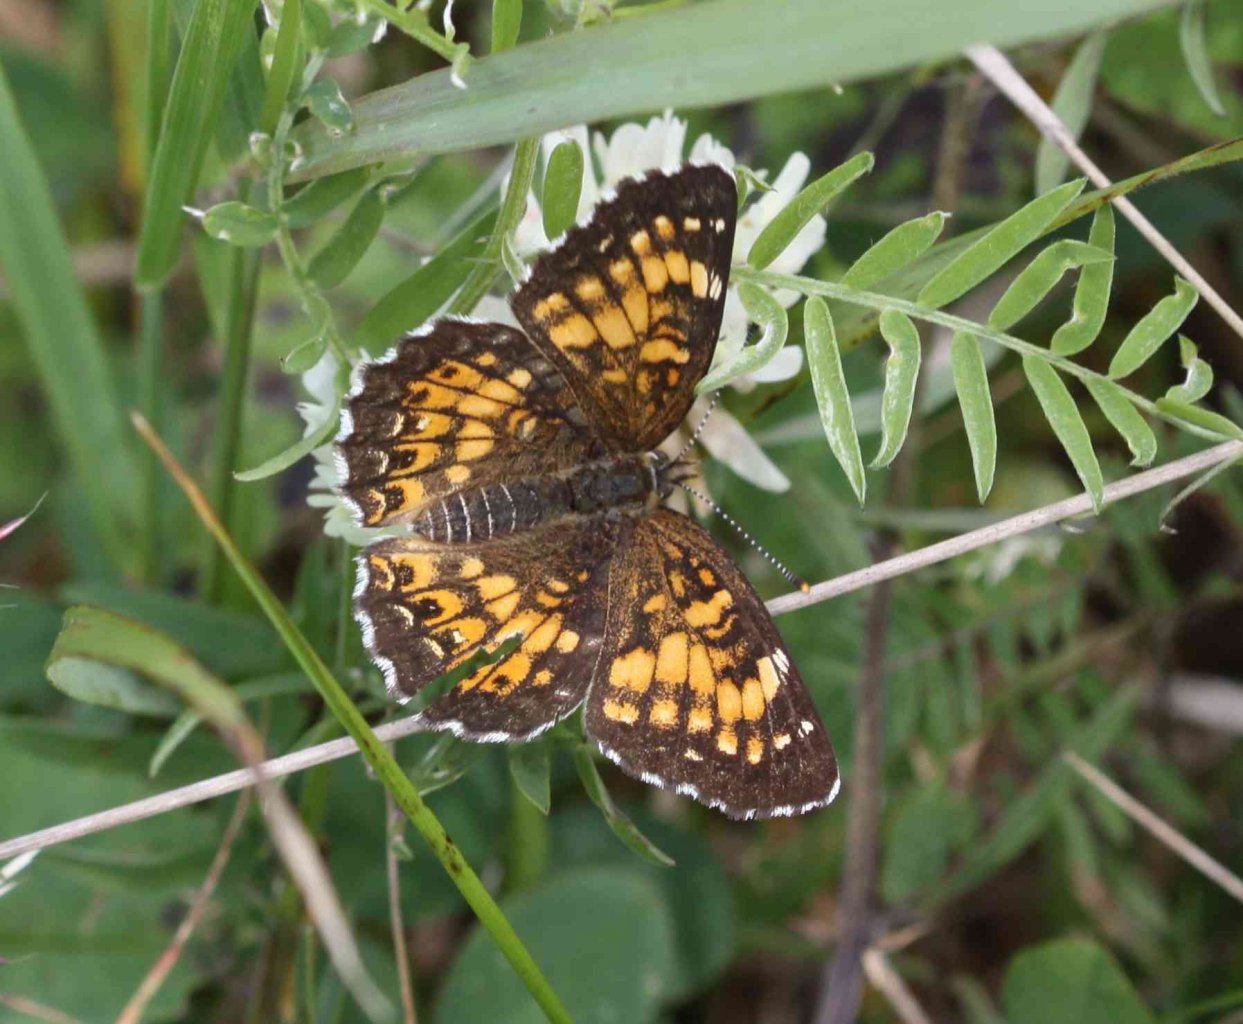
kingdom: Animalia
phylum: Arthropoda
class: Insecta
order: Lepidoptera
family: Nymphalidae
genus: Chlosyne
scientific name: Chlosyne harrisii
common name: Harris's Checkerspot
